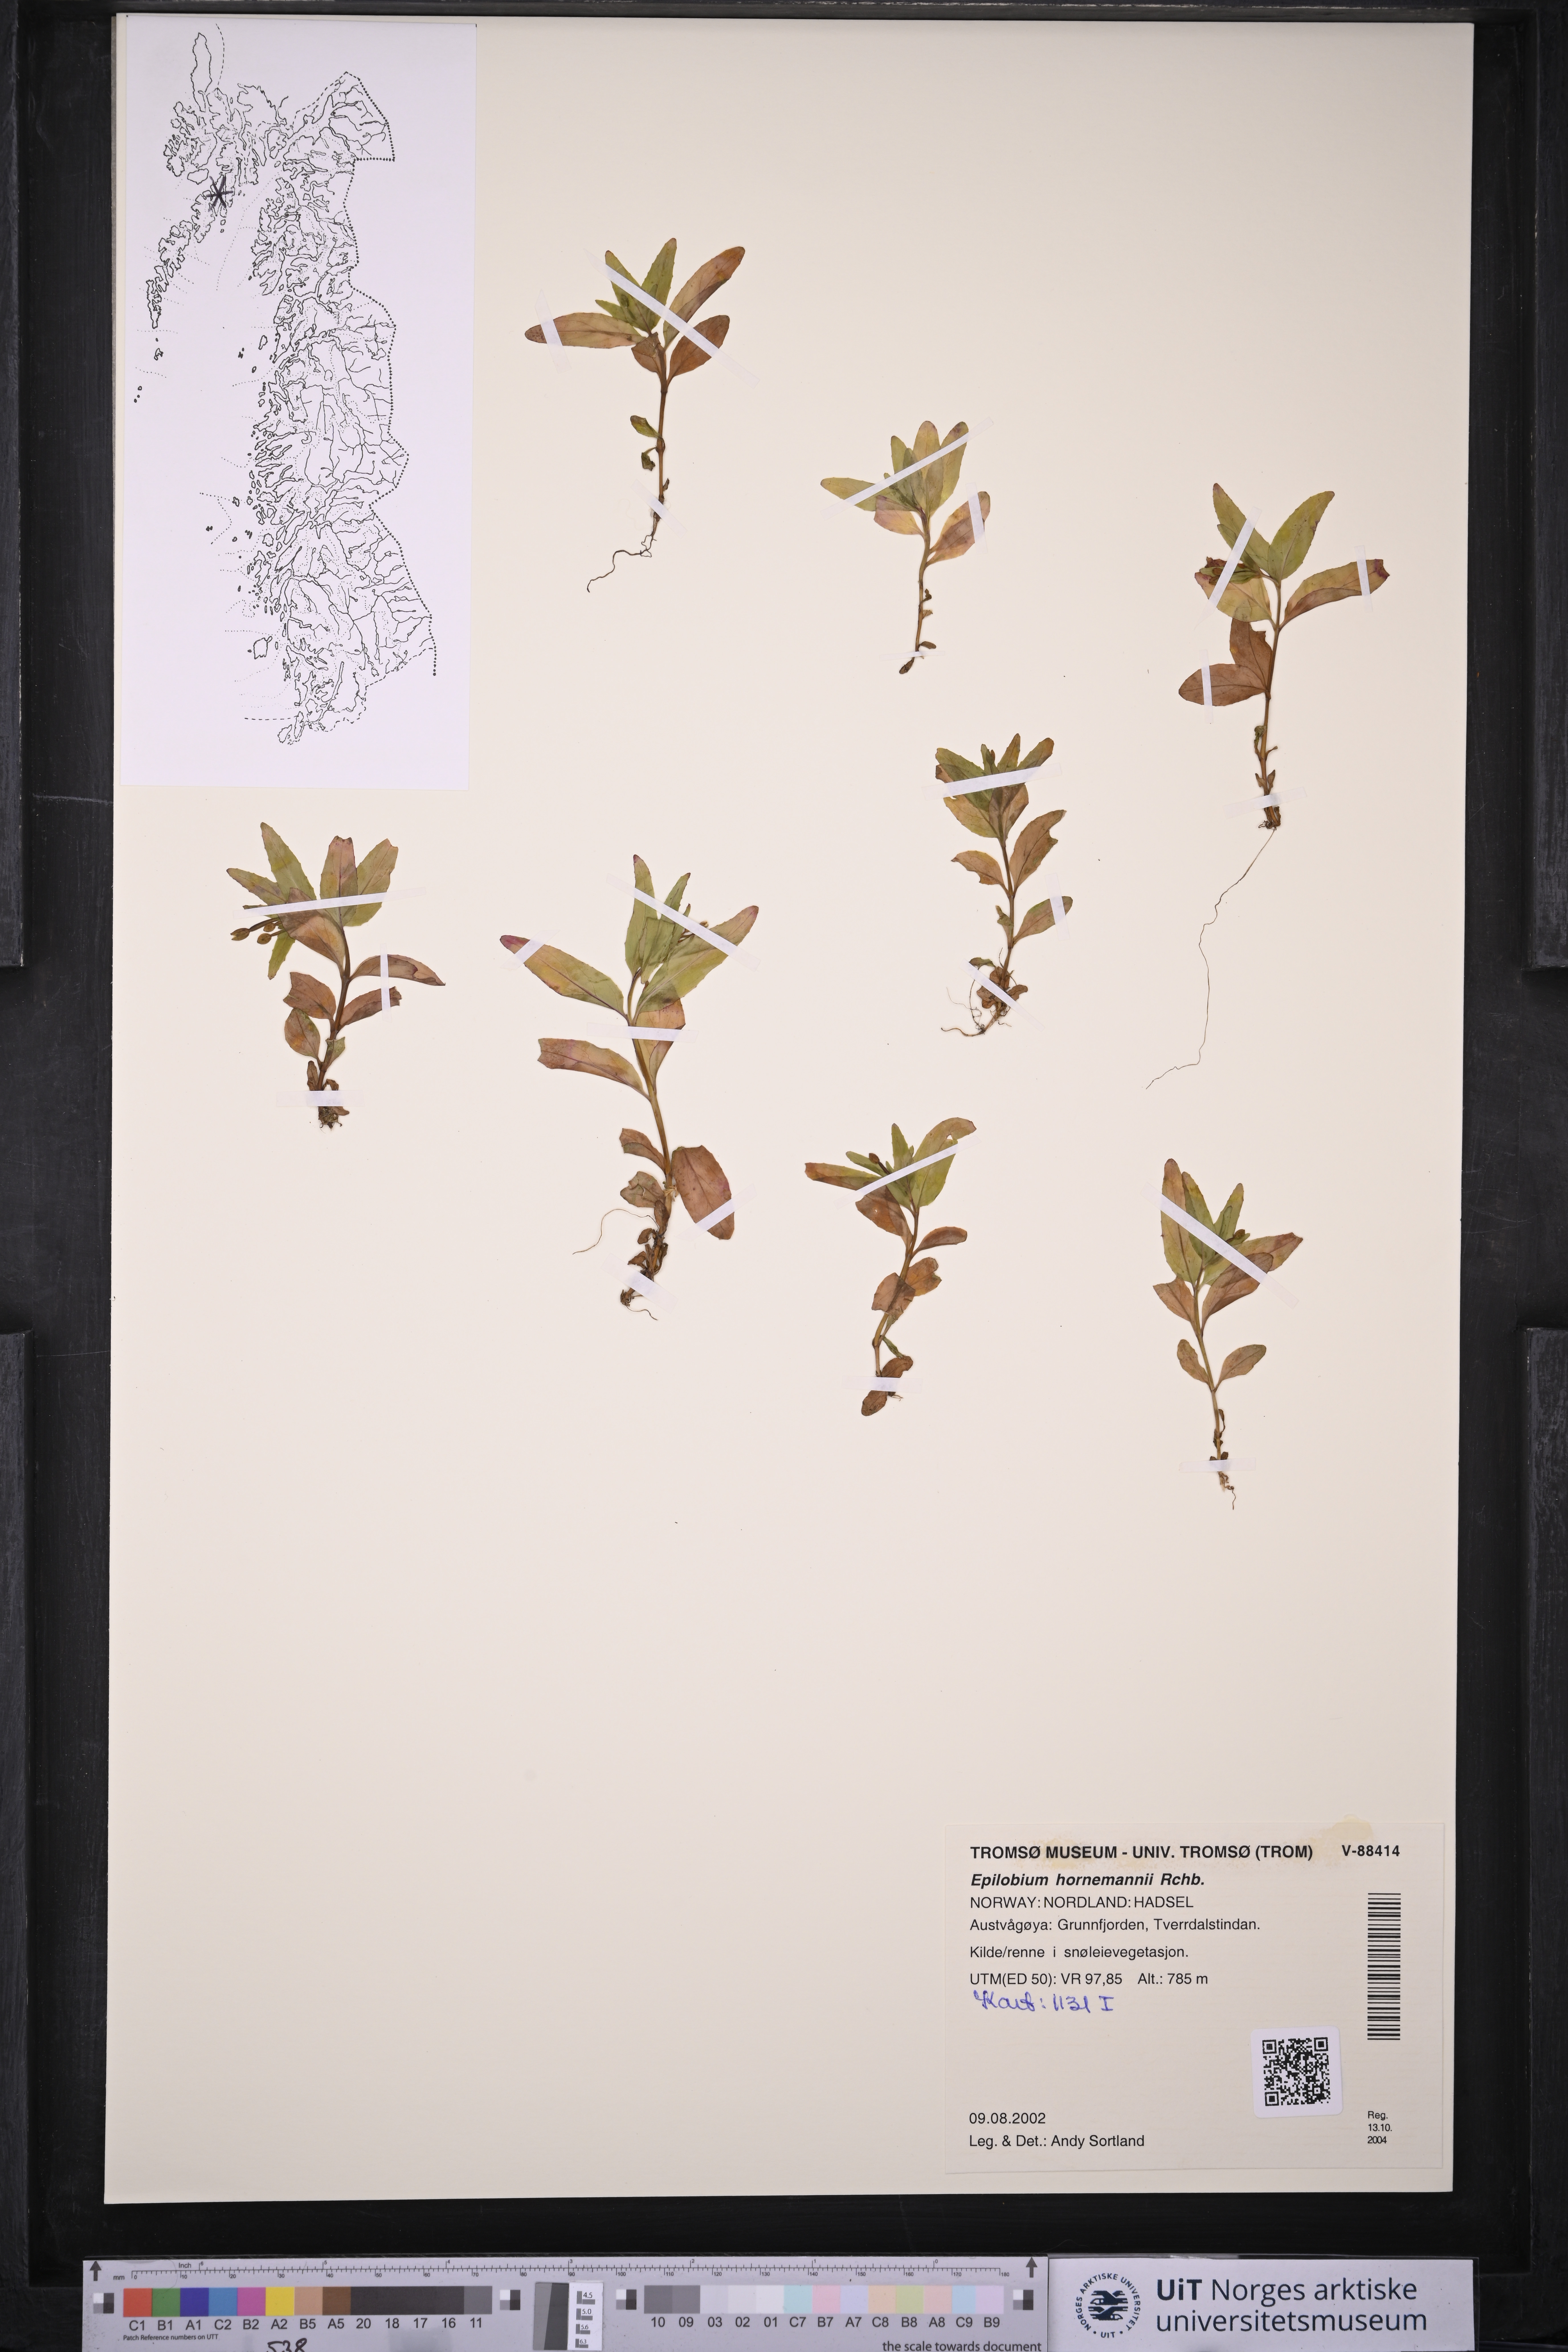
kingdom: Plantae
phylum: Tracheophyta
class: Magnoliopsida
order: Myrtales
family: Onagraceae
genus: Epilobium
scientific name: Epilobium hornemannii
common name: Hornemann's willowherb
